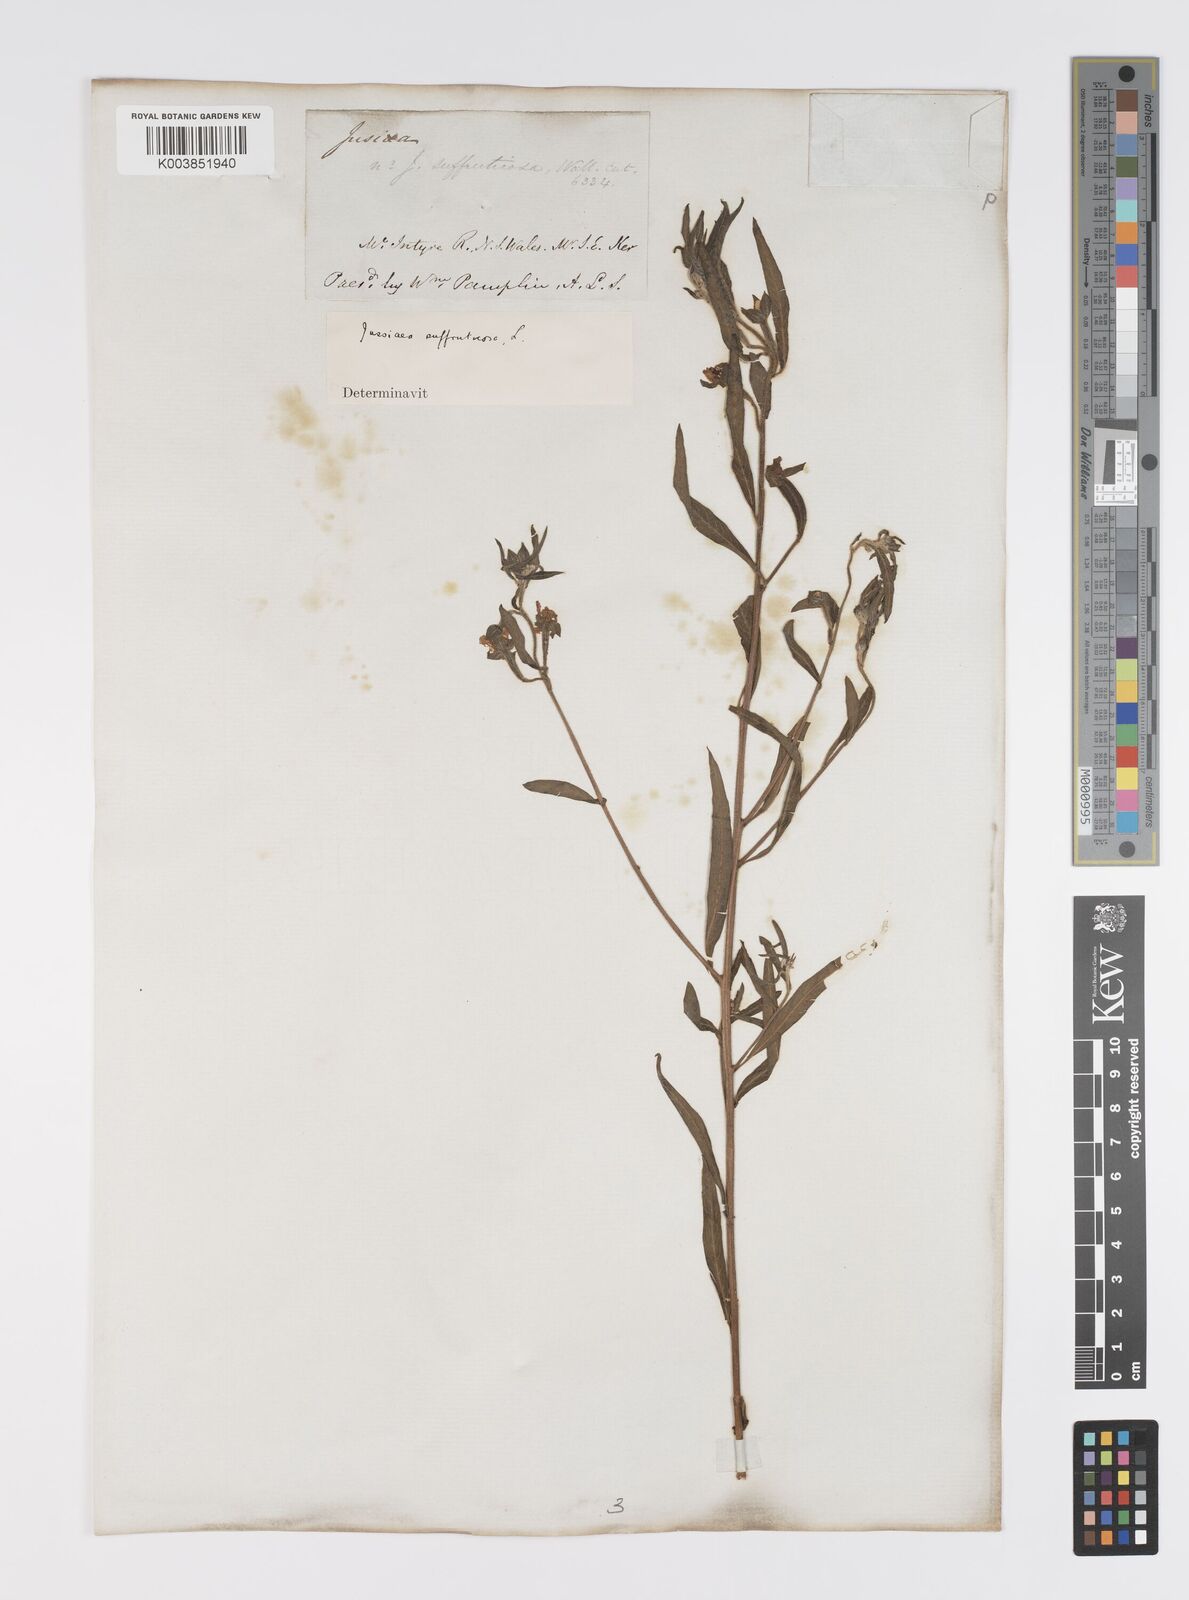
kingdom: Plantae
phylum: Tracheophyta
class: Magnoliopsida
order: Myrtales
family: Onagraceae
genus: Ludwigia
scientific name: Ludwigia octovalvis
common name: Water-primrose
